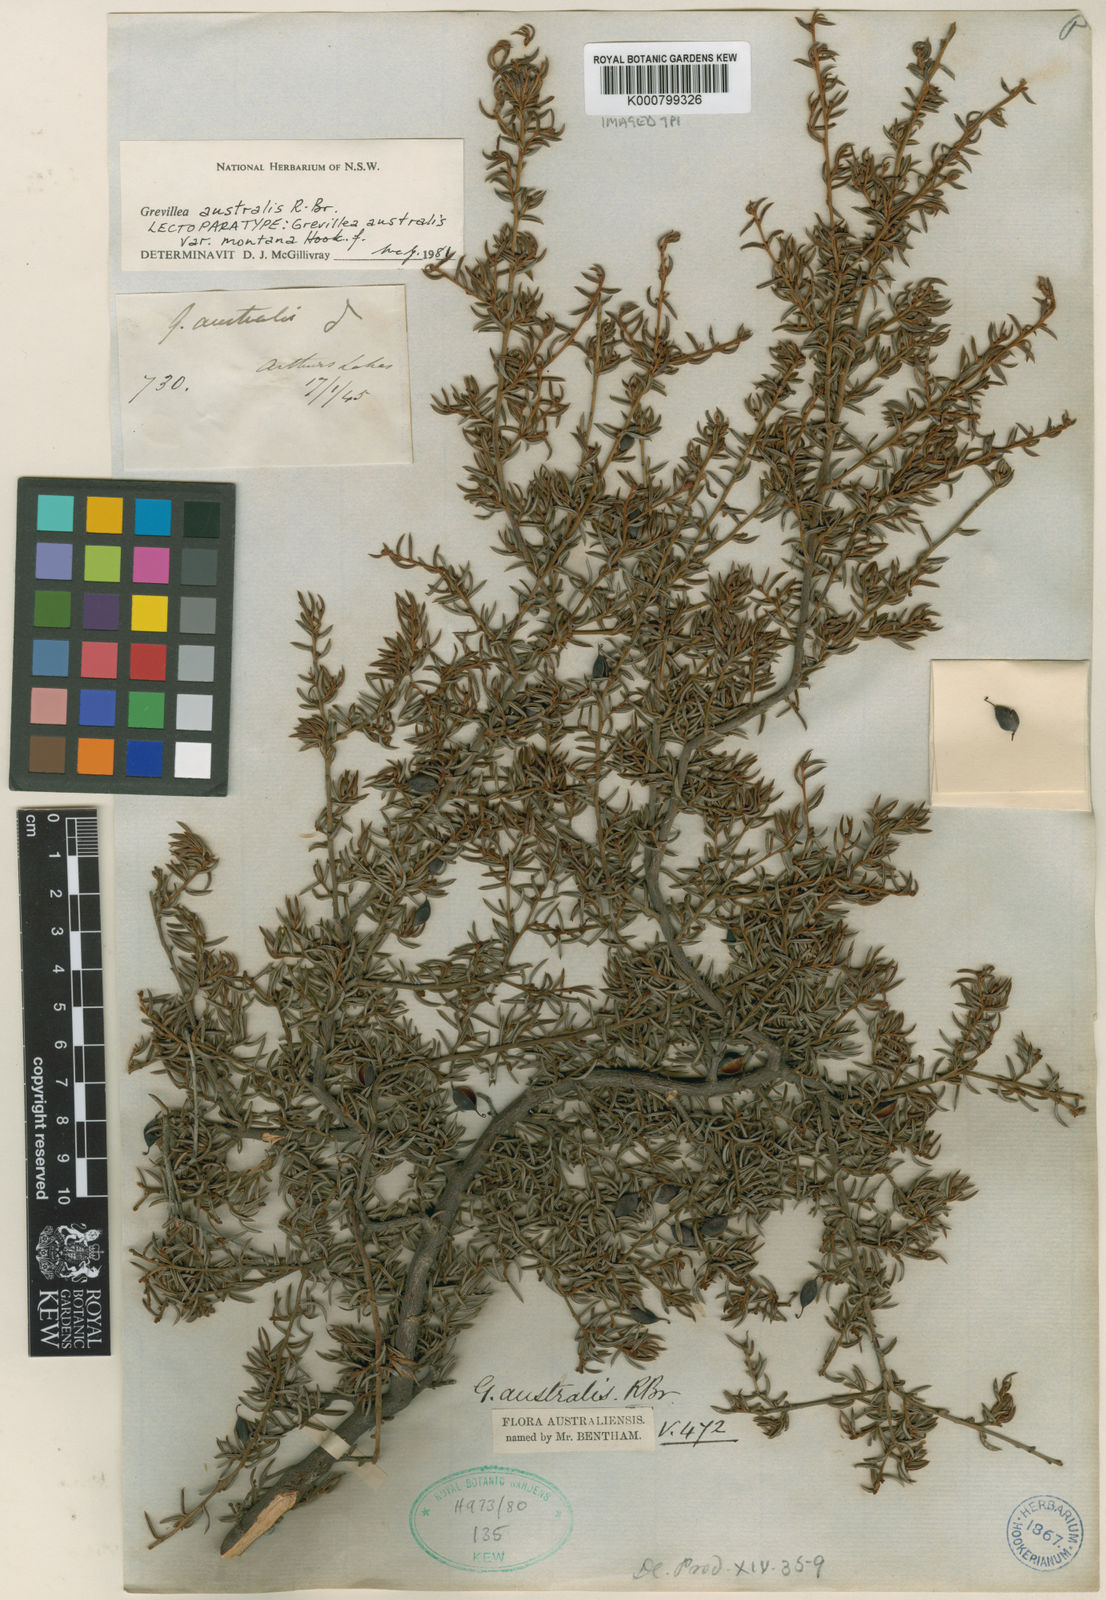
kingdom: Plantae
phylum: Tracheophyta
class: Magnoliopsida
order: Proteales
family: Proteaceae
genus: Grevillea
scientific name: Grevillea australis
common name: Alpine grevillea
